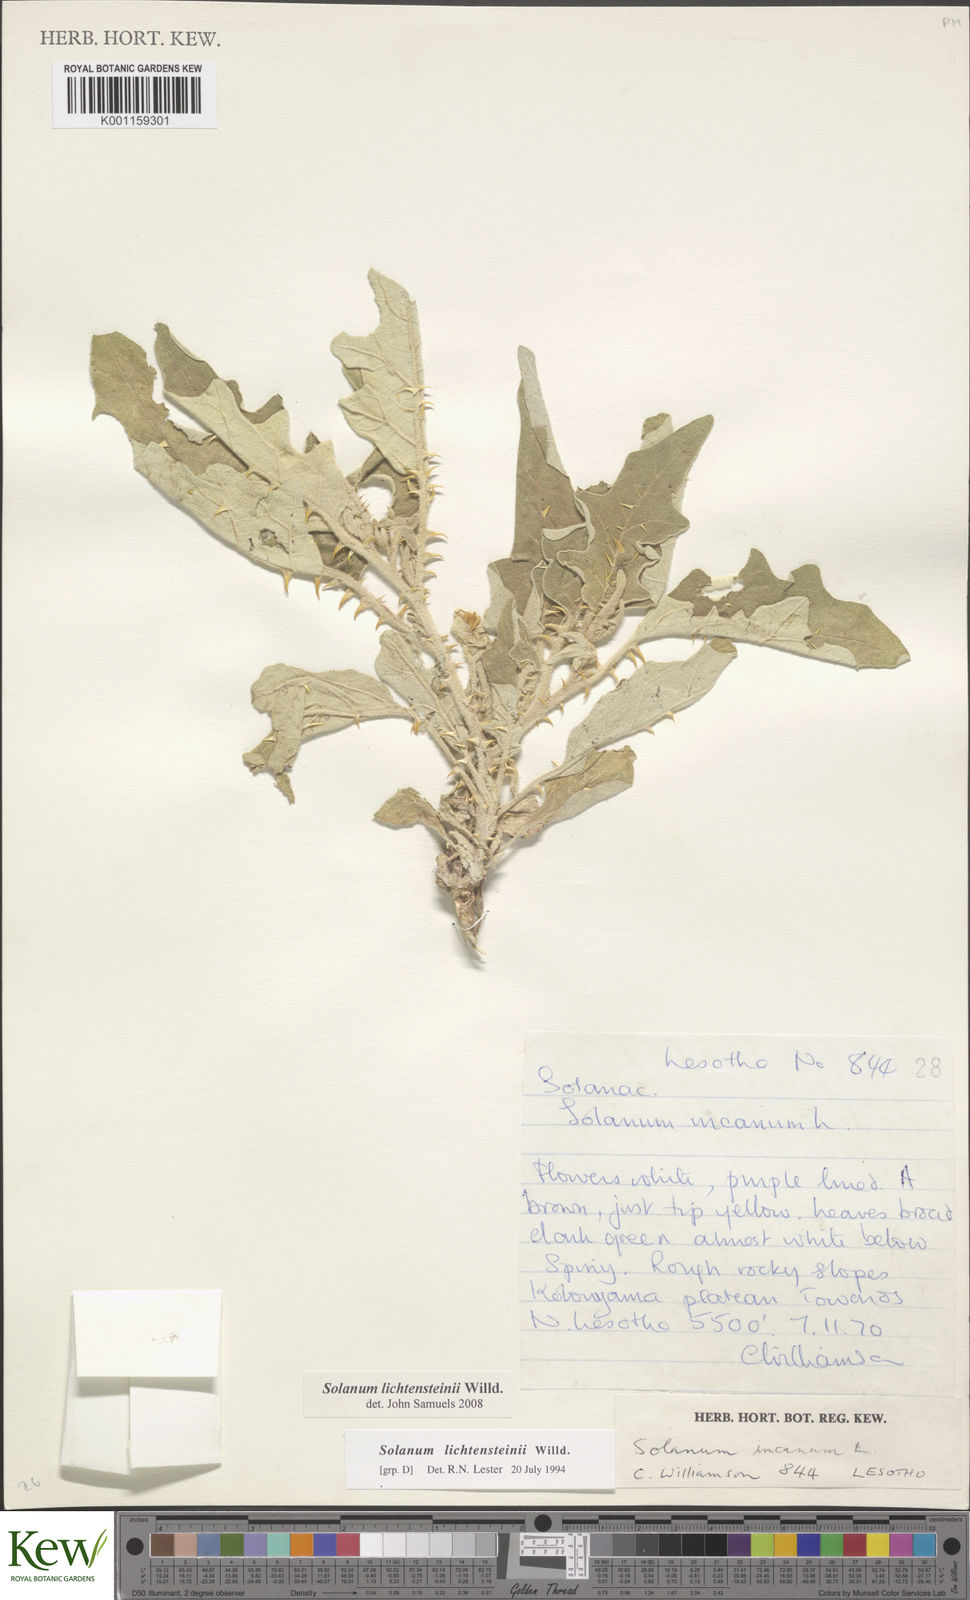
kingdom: Plantae
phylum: Tracheophyta
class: Magnoliopsida
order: Solanales
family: Solanaceae
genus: Solanum
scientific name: Solanum lichtensteinii
